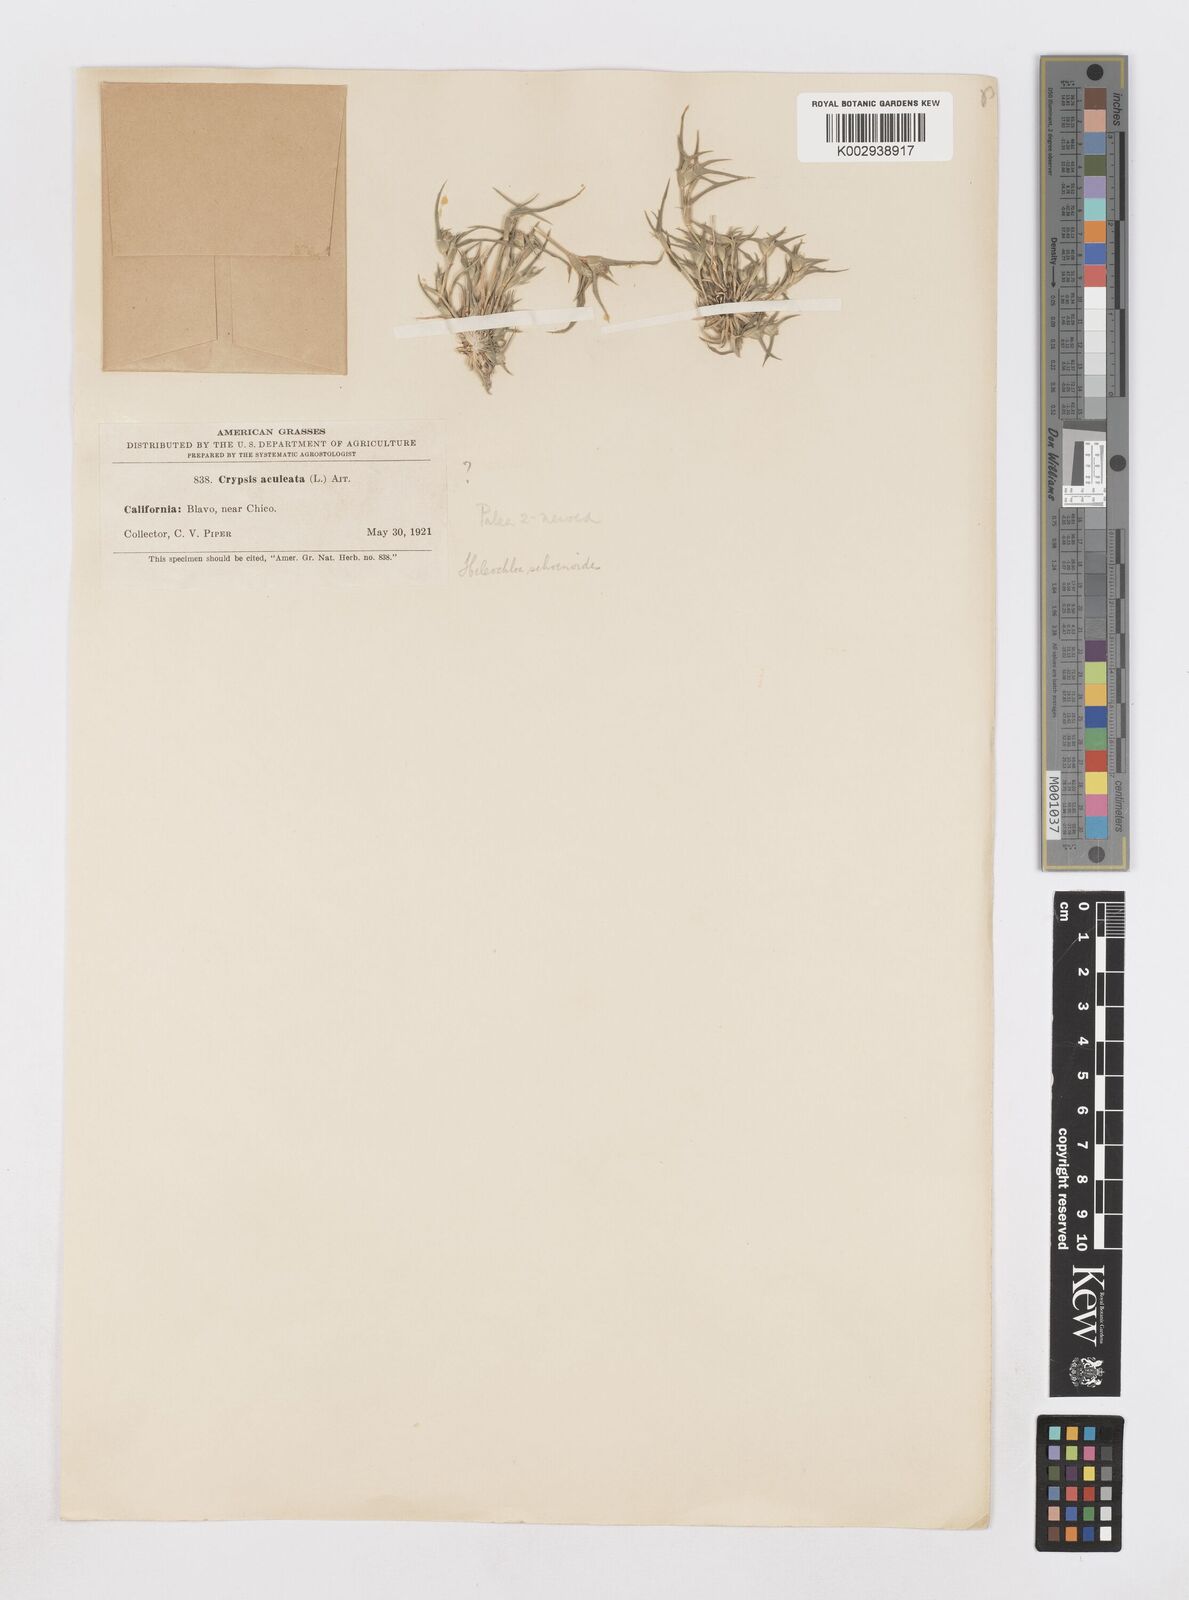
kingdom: Animalia
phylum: Arthropoda
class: Insecta
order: Coleoptera
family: Tenebrionidae
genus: Crypsis
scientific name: Crypsis
